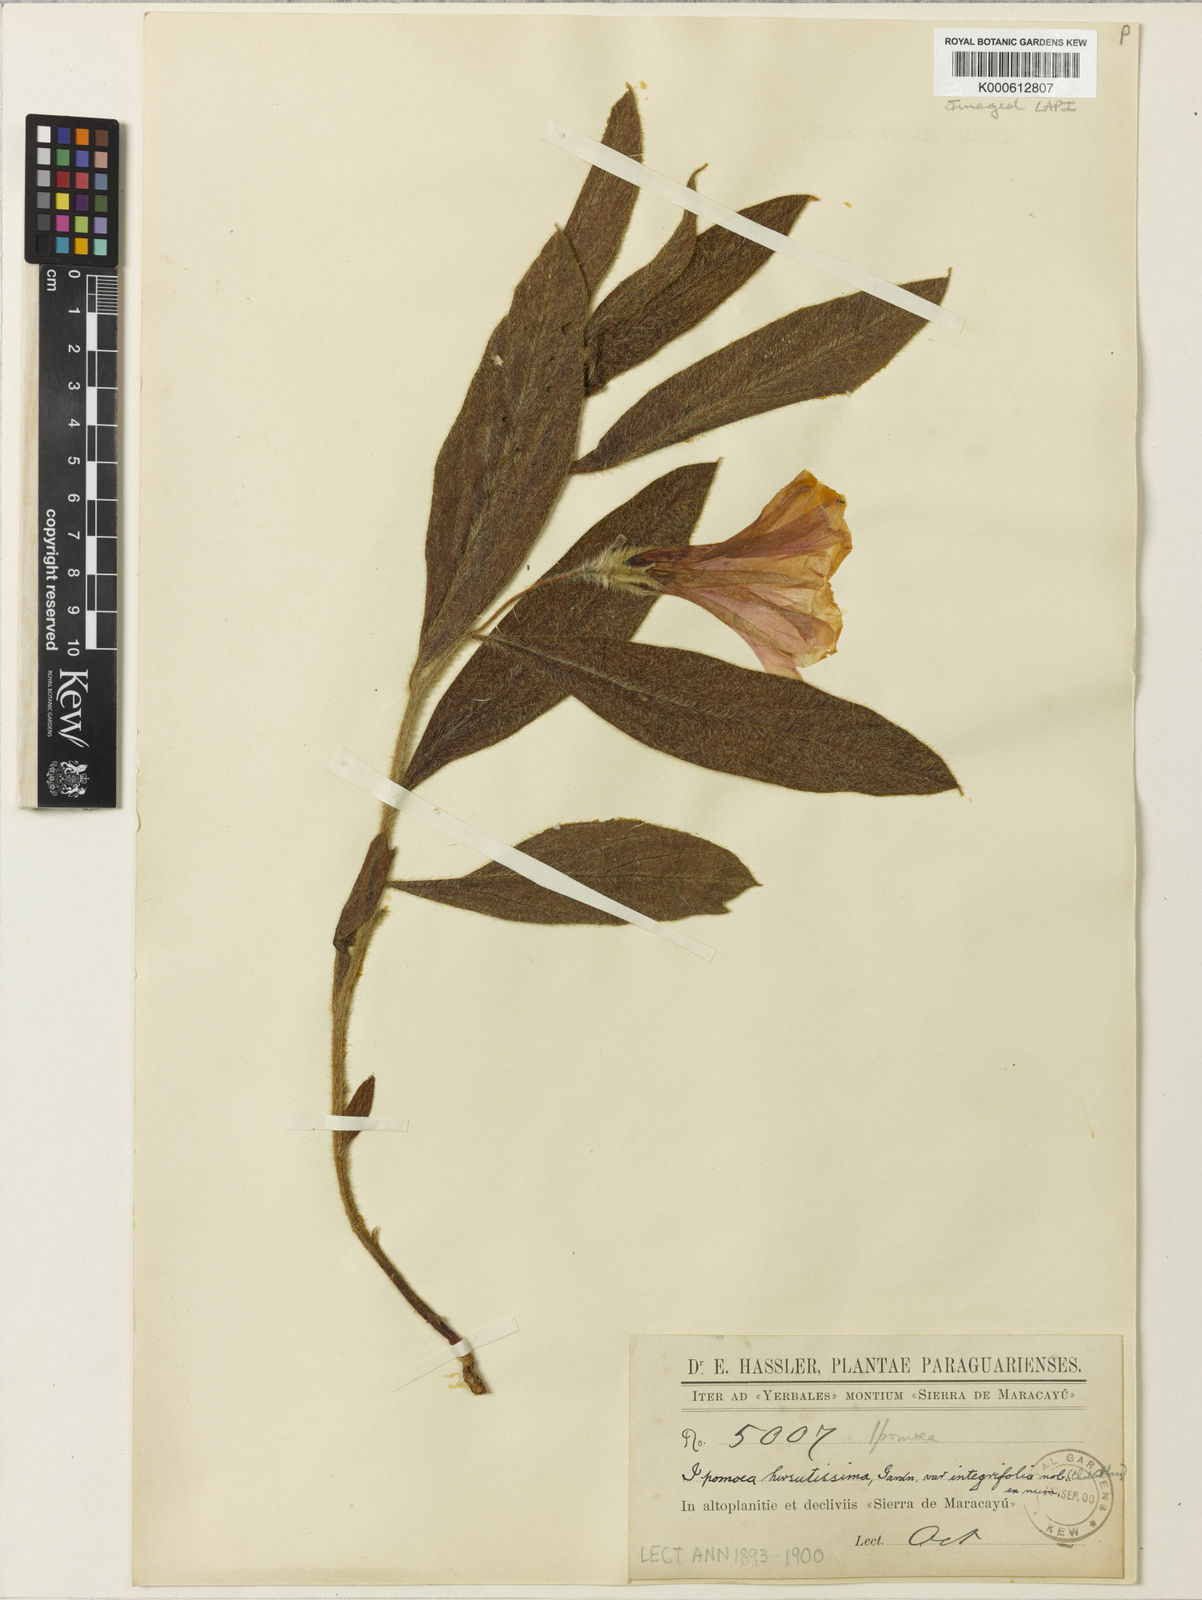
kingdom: Plantae
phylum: Tracheophyta
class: Magnoliopsida
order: Solanales
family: Convolvulaceae
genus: Ipomoea
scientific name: Ipomoea hirsutissima
